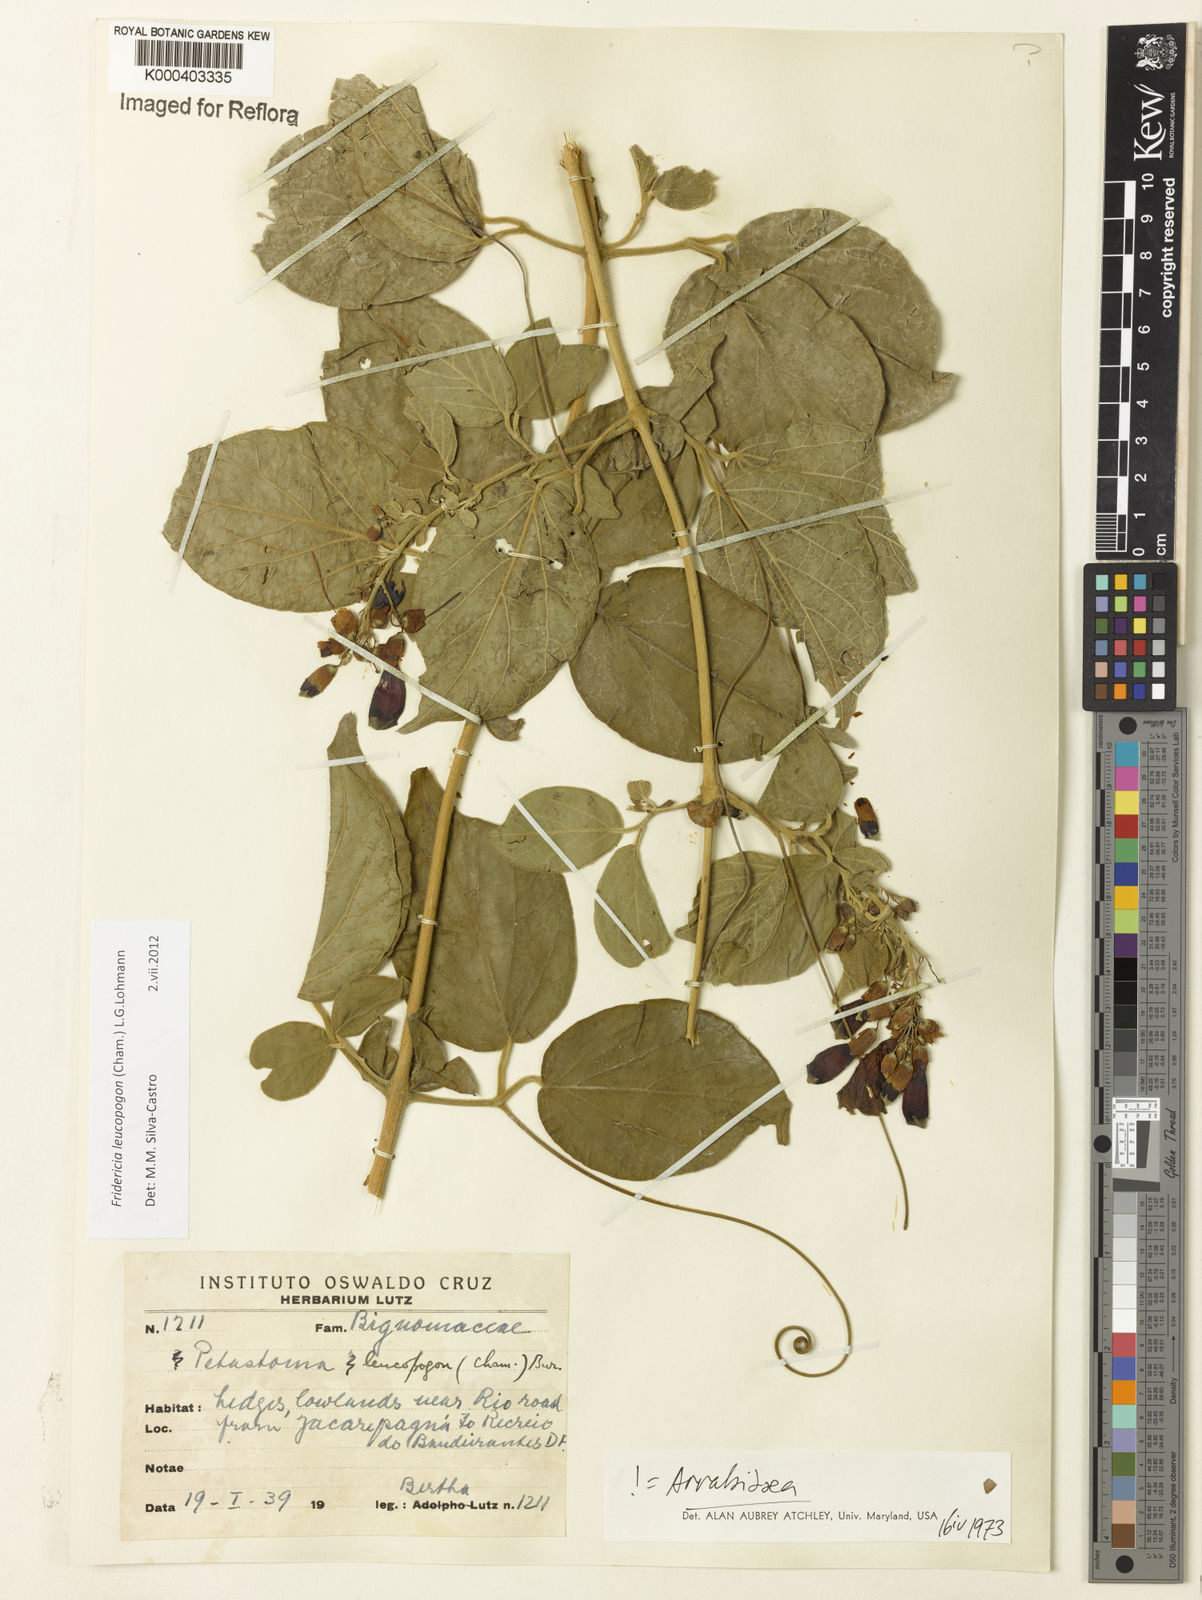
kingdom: Plantae
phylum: Tracheophyta
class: Magnoliopsida
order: Lamiales
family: Bignoniaceae
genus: Fridericia
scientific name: Fridericia leucopogon
